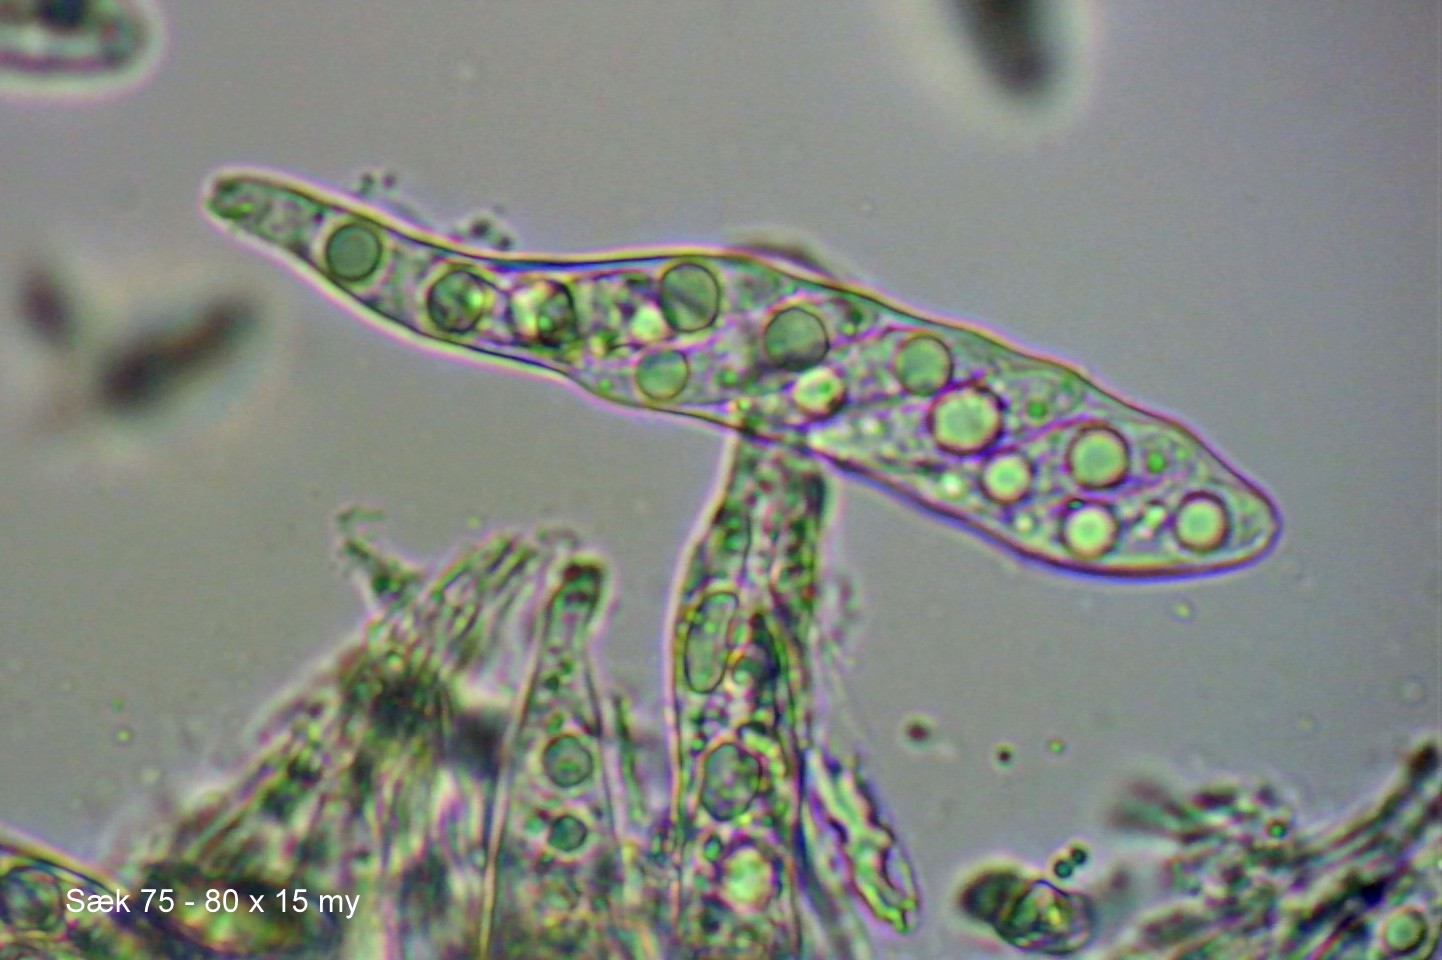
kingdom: Fungi
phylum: Ascomycota
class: Leotiomycetes
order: Helotiales
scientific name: Helotiales
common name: stilkskiveordenen
